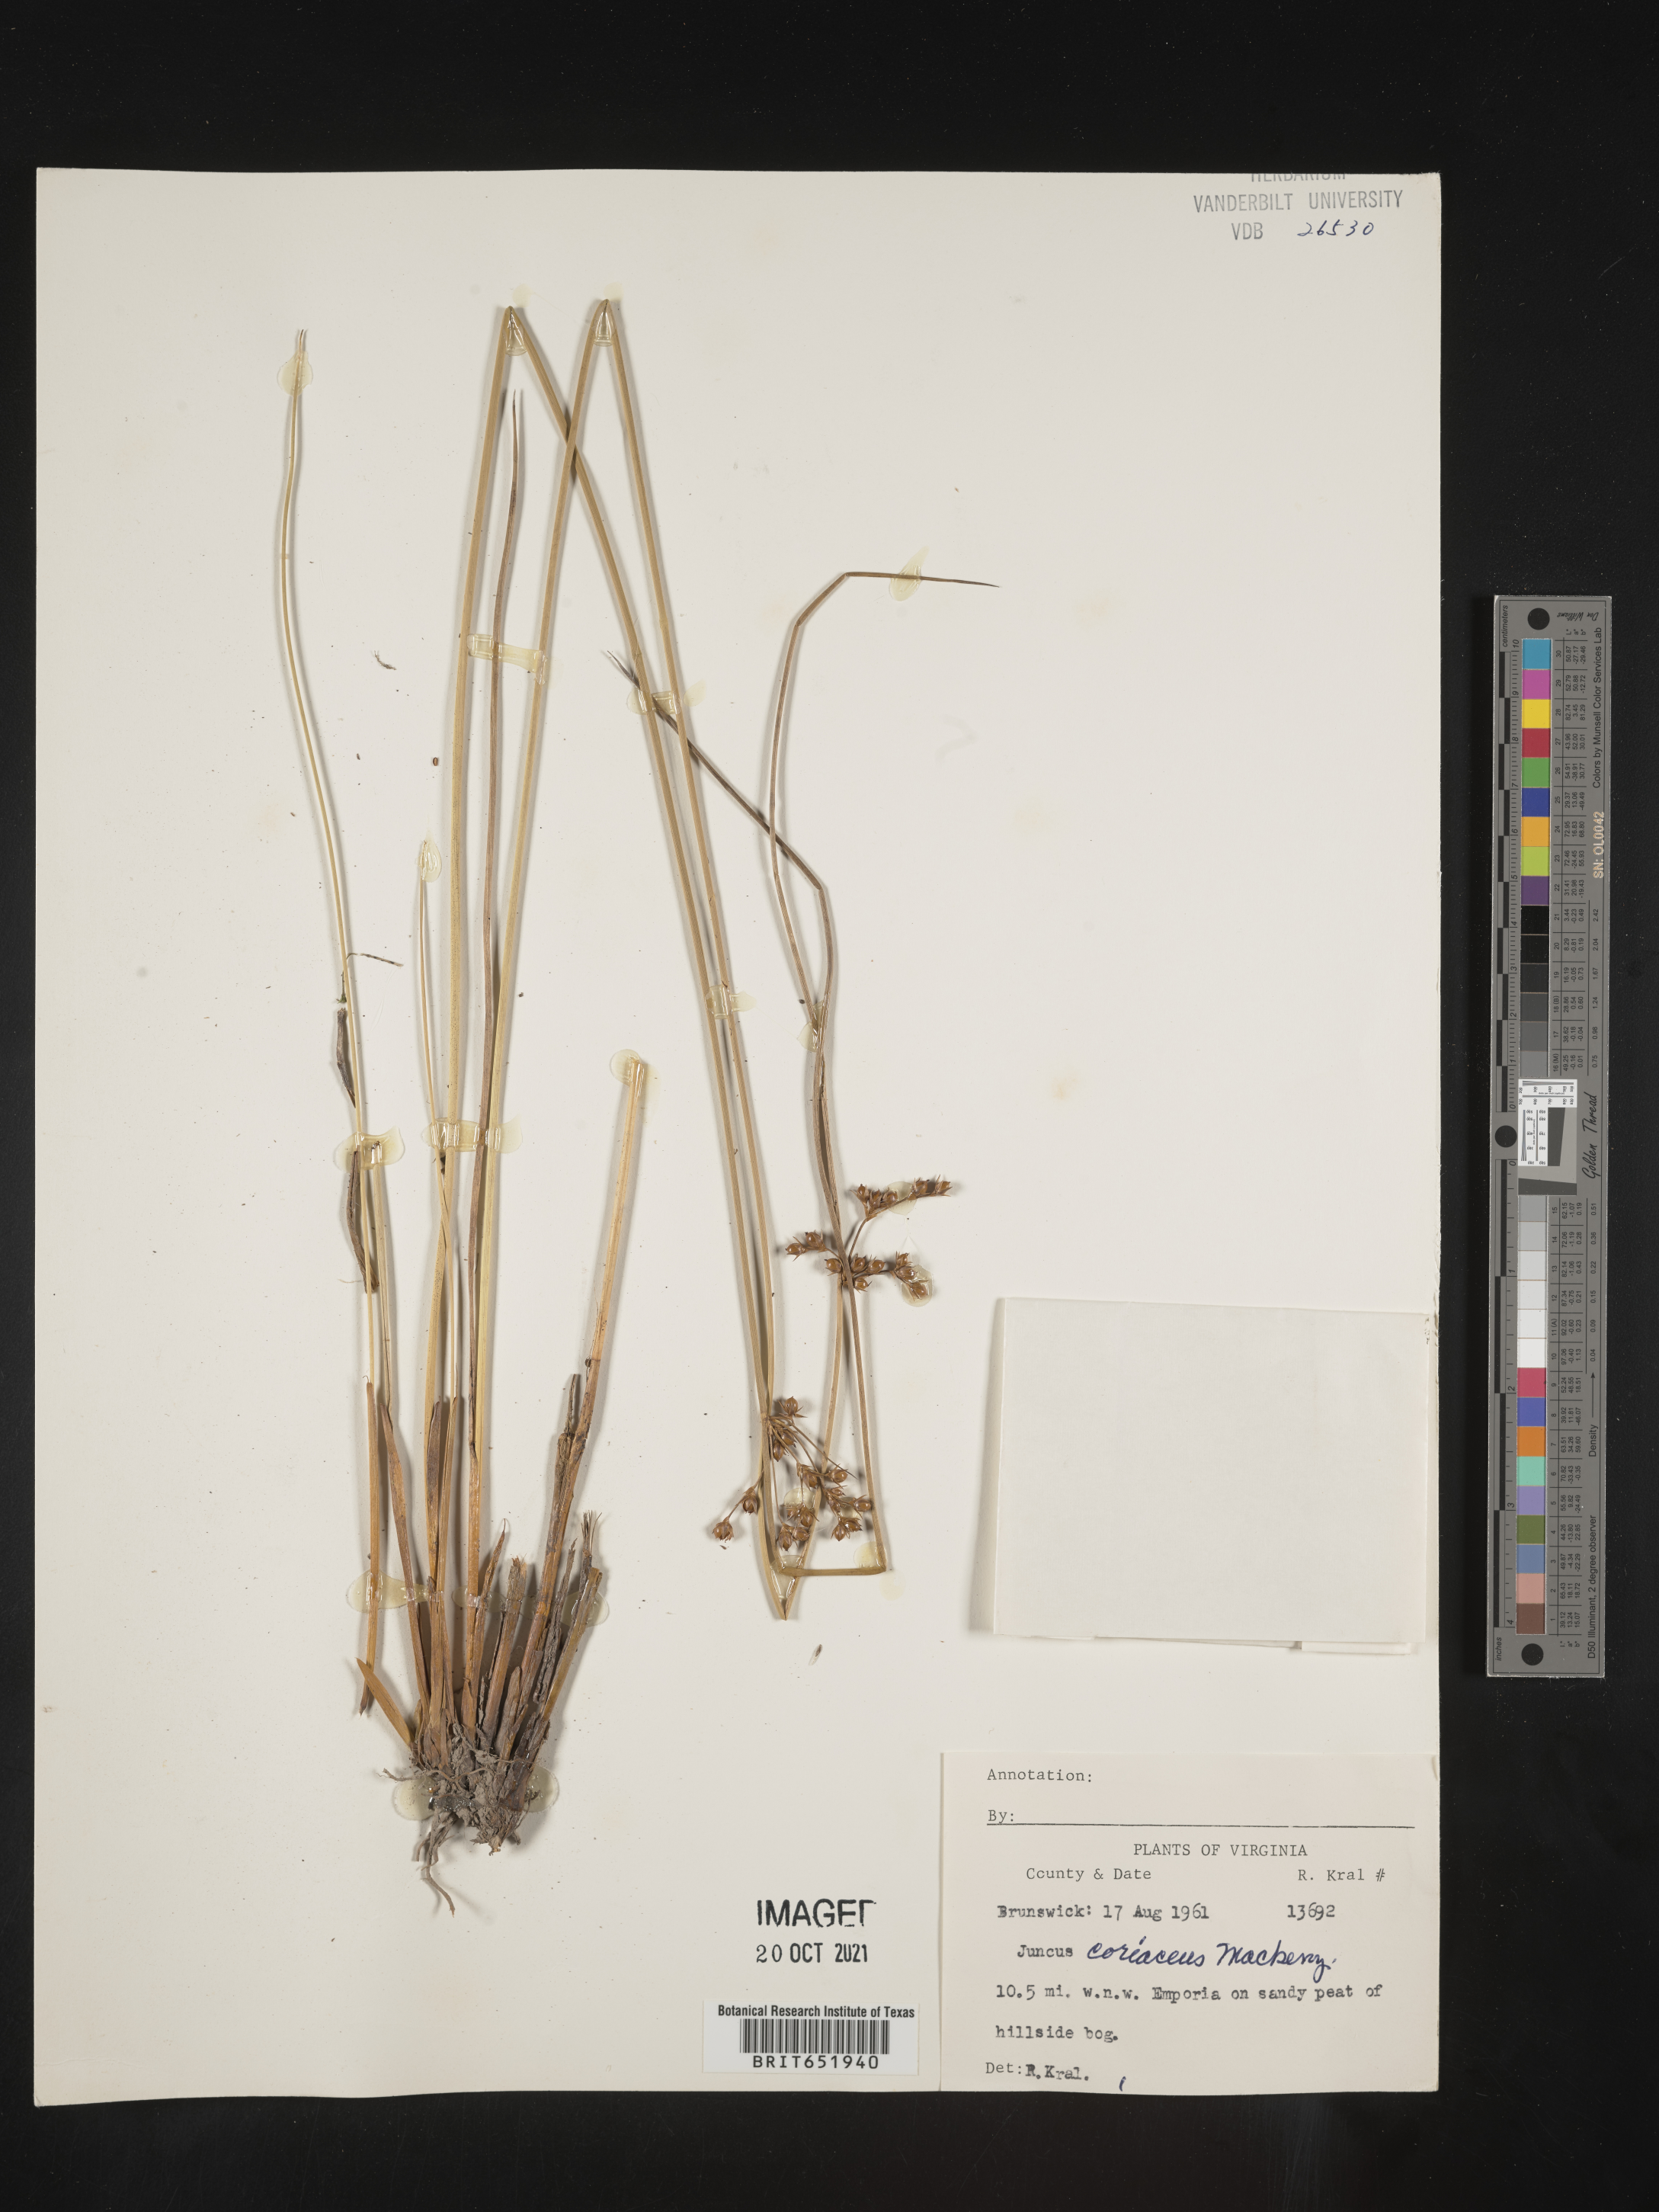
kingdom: Plantae
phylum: Tracheophyta
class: Liliopsida
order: Poales
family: Juncaceae
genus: Juncus
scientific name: Juncus coriaceus
